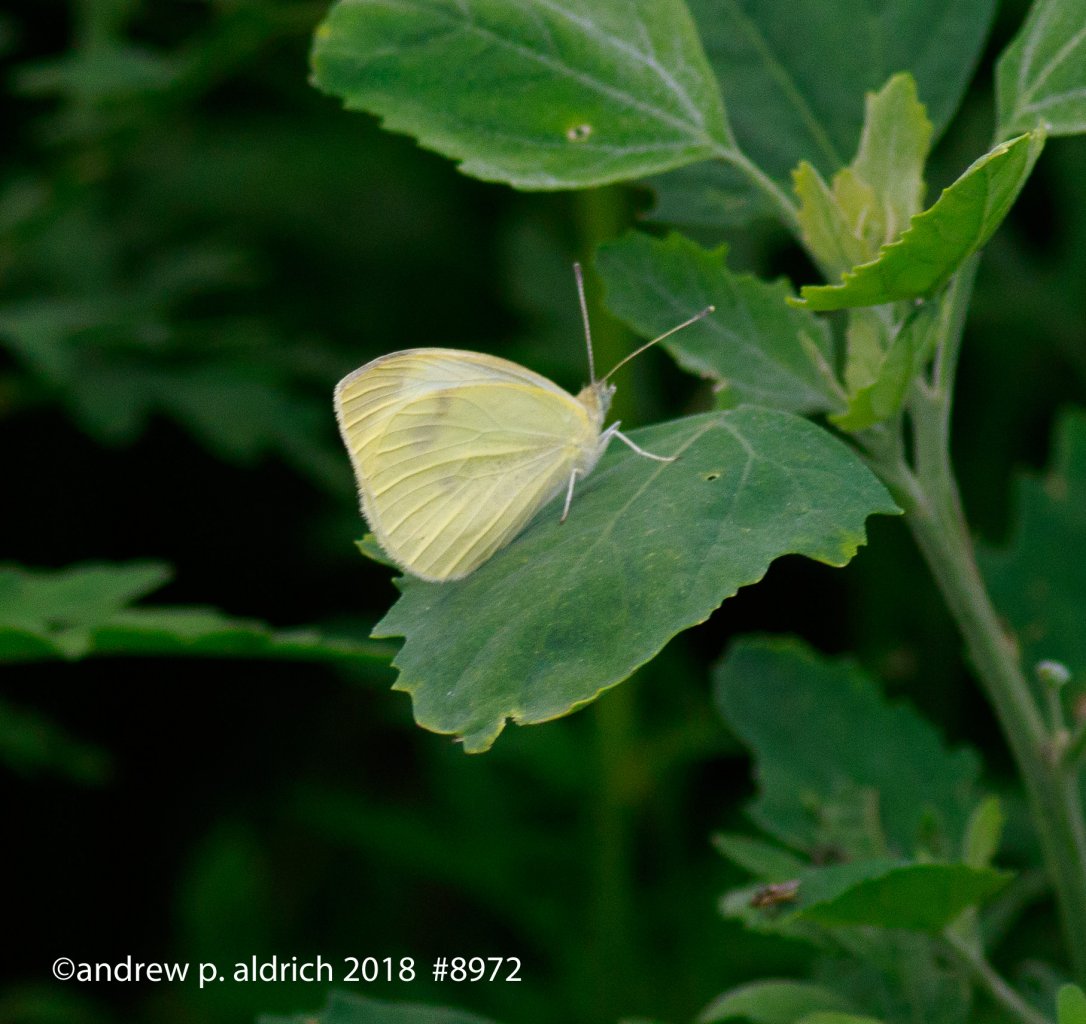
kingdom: Animalia
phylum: Arthropoda
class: Insecta
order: Lepidoptera
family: Pieridae
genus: Pieris
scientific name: Pieris rapae
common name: Cabbage White
